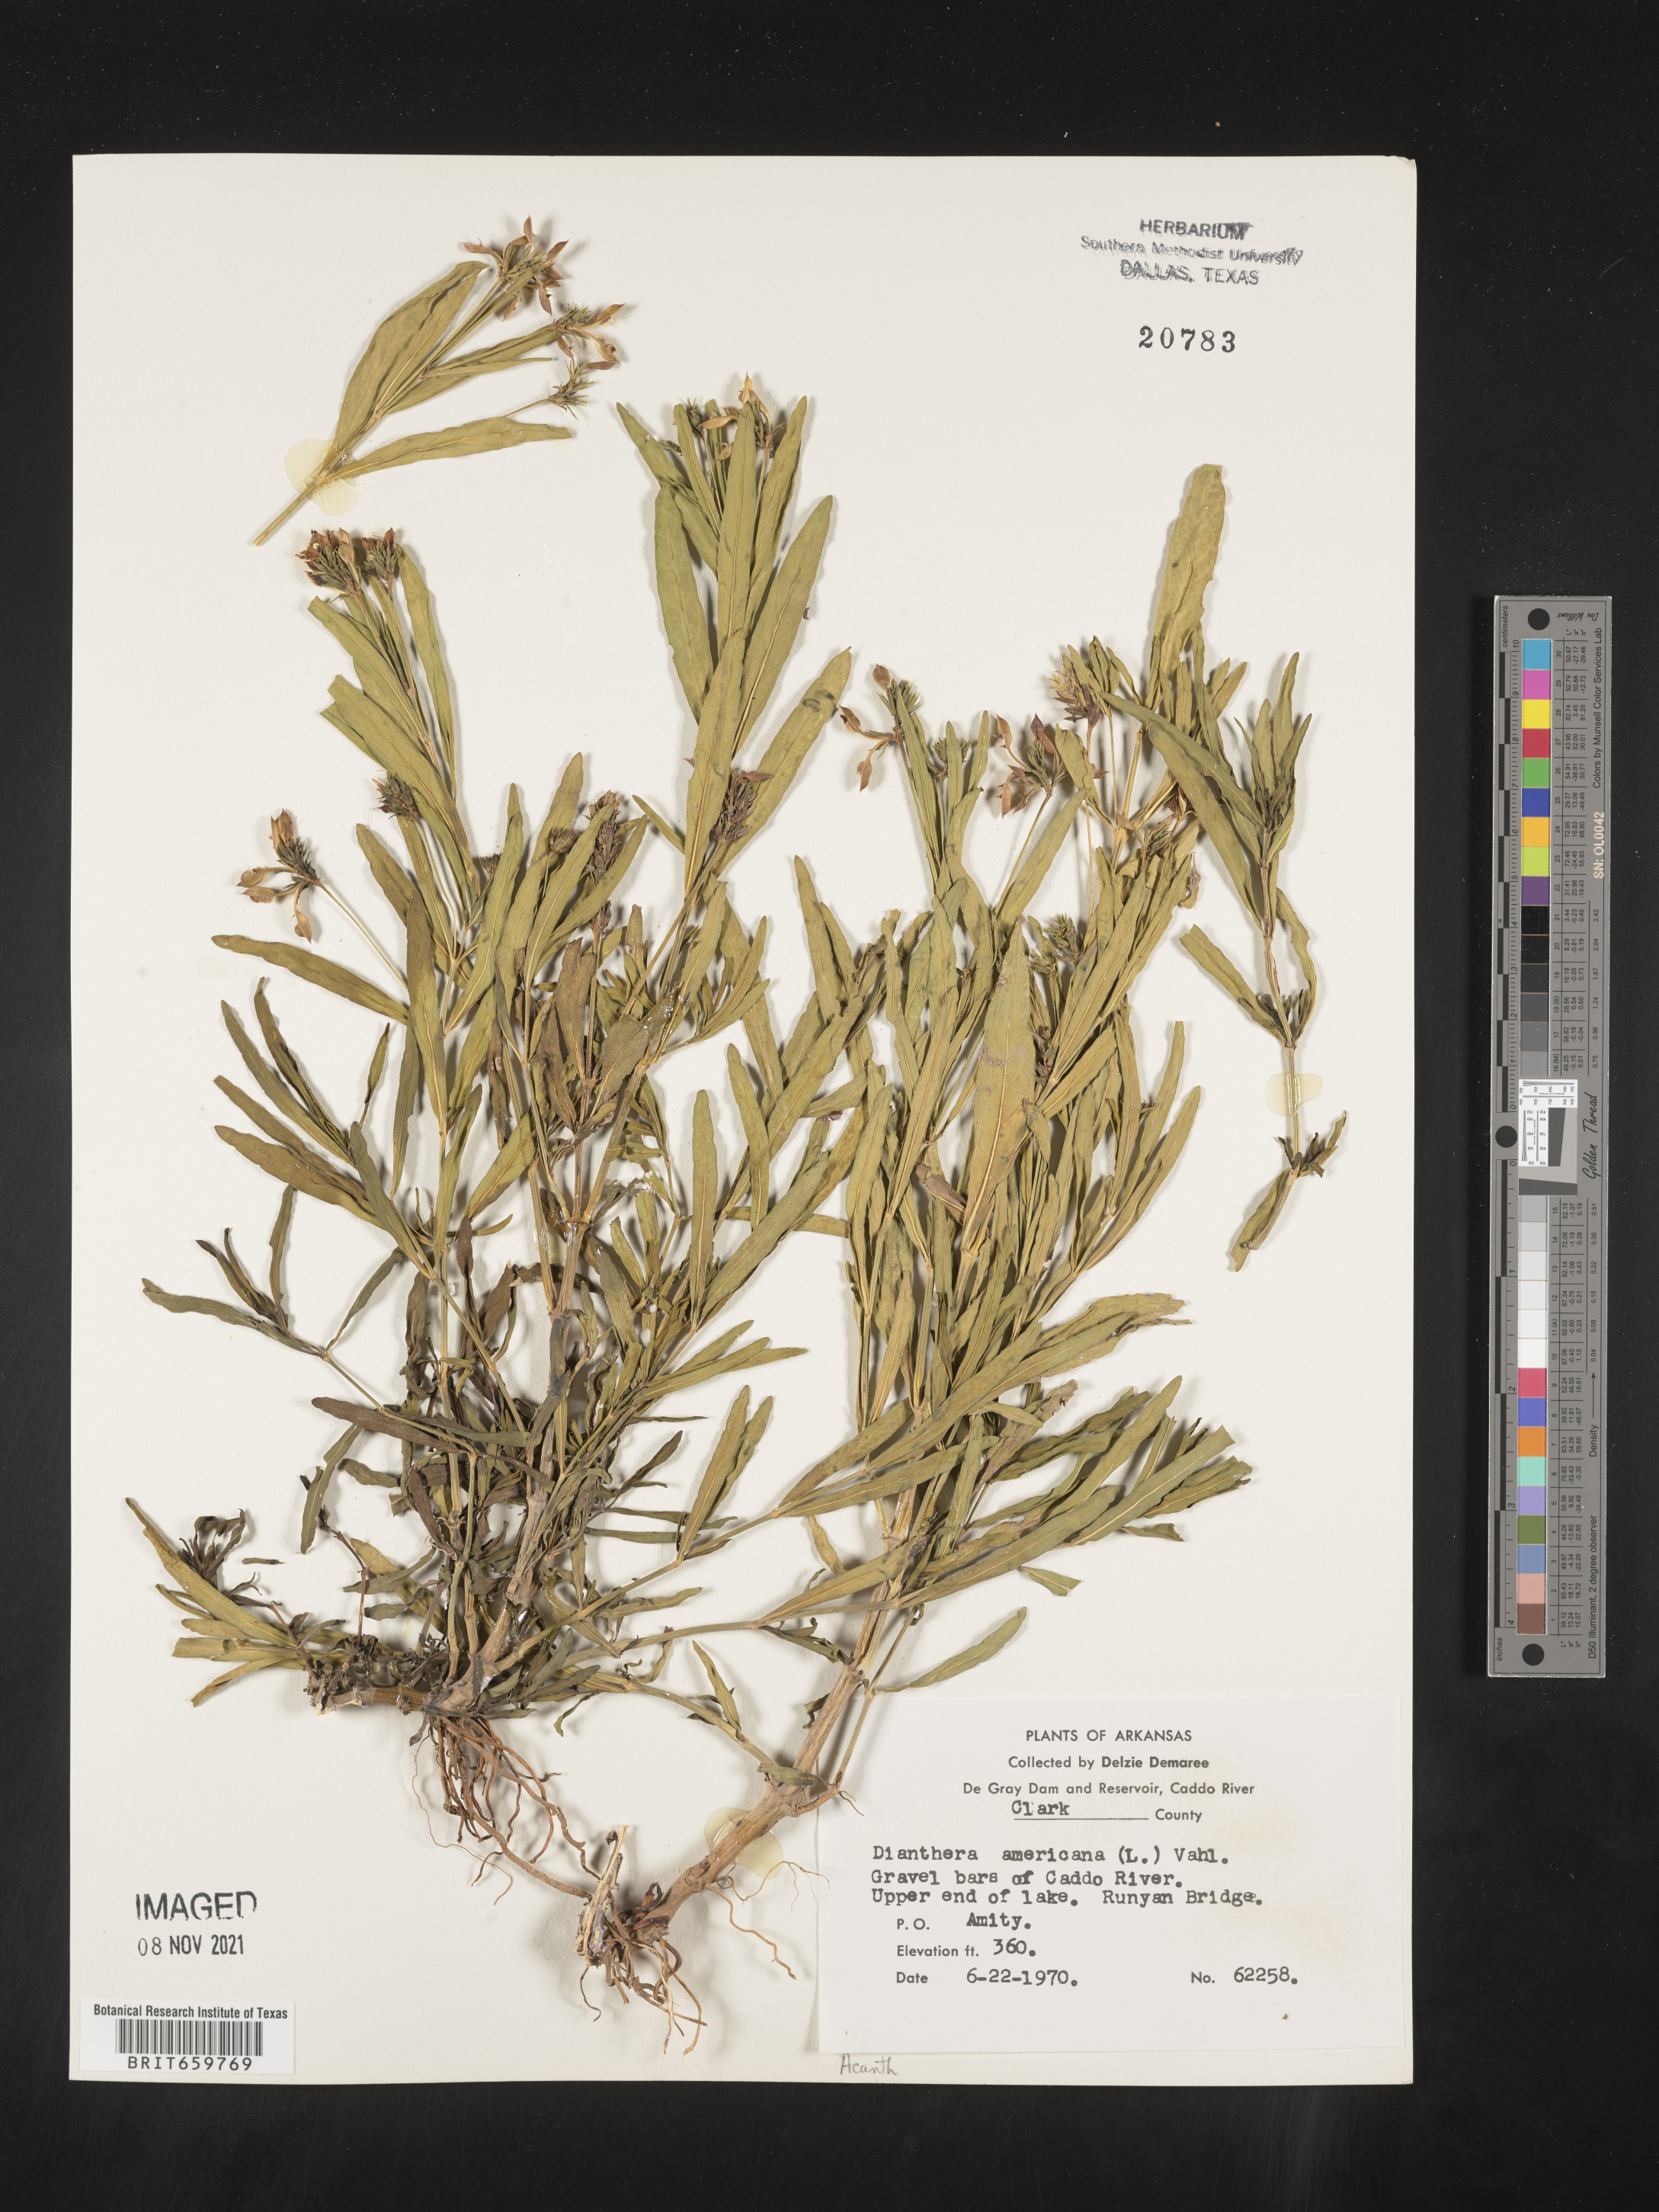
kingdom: Plantae
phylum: Tracheophyta
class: Magnoliopsida
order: Lamiales
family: Acanthaceae
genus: Dianthera
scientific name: Dianthera americana
